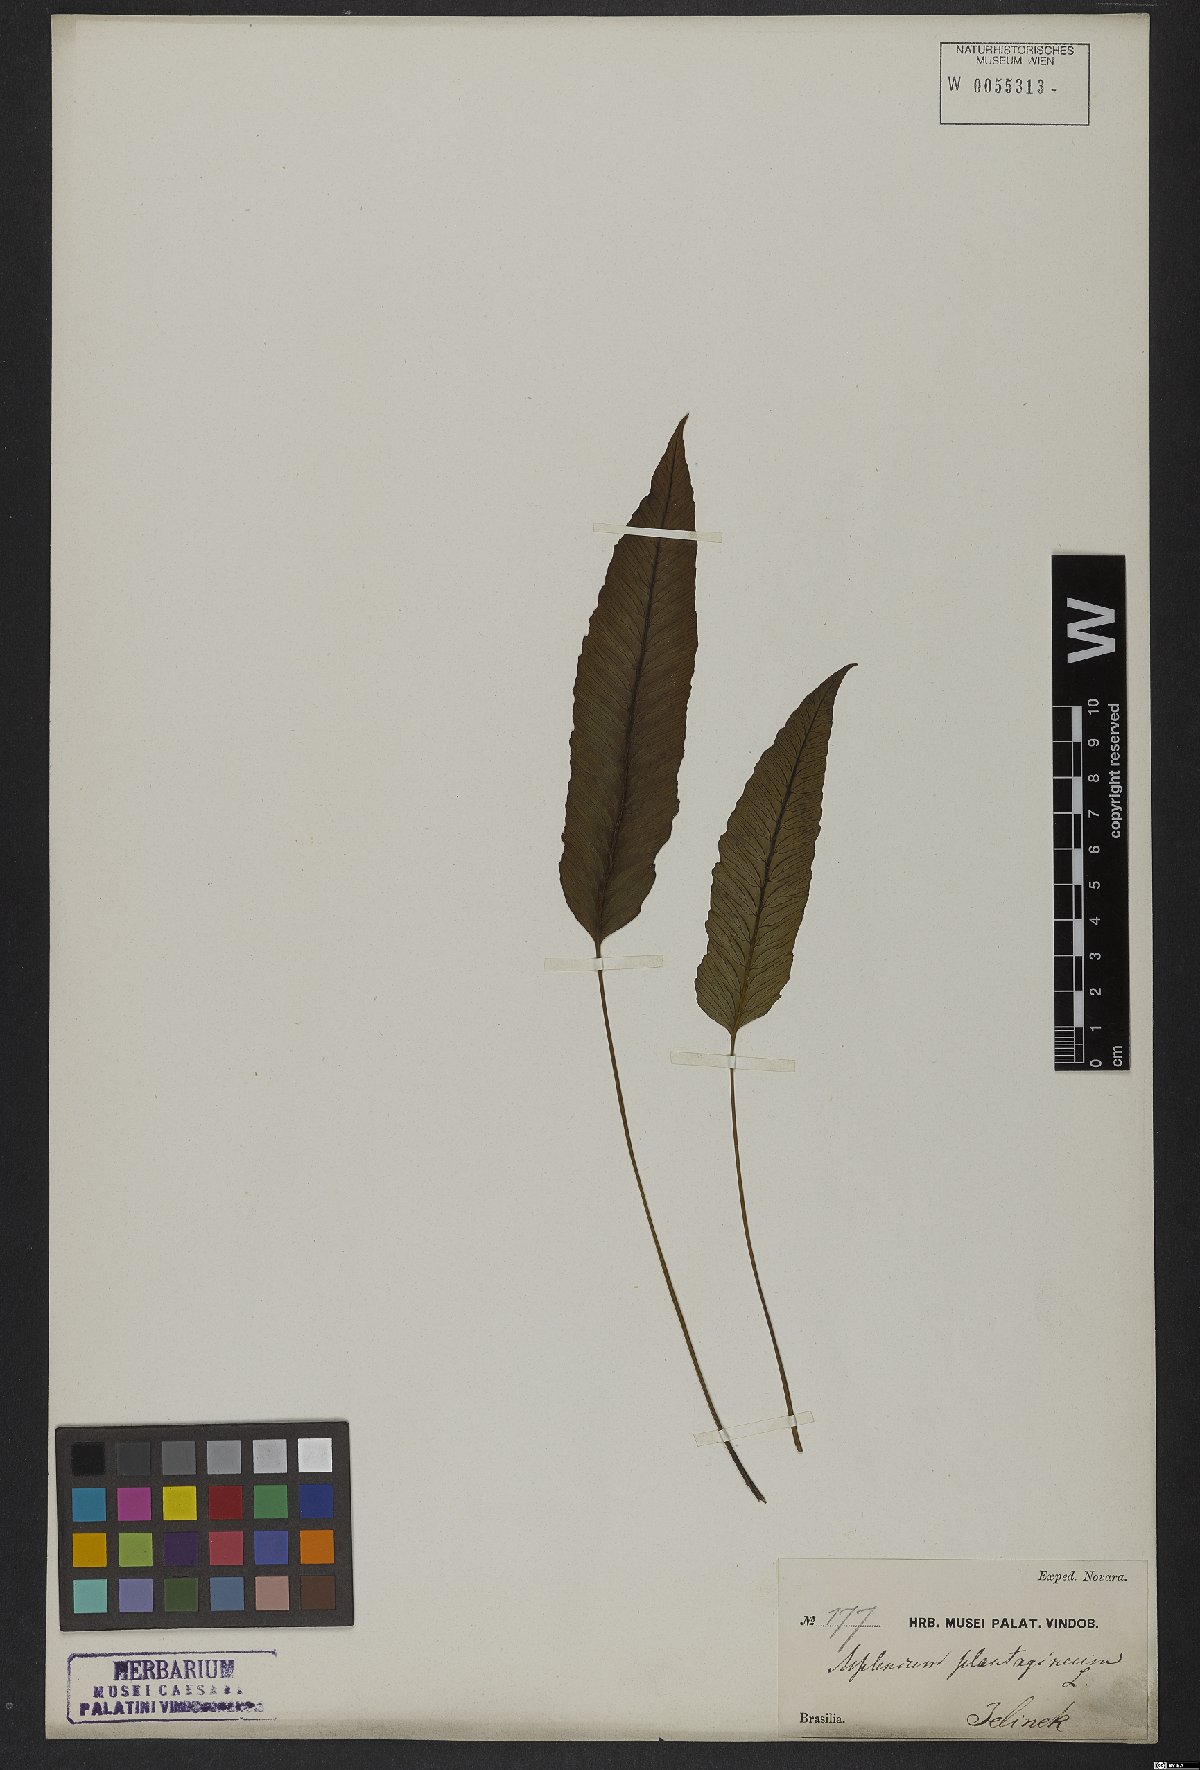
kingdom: Plantae
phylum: Tracheophyta
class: Polypodiopsida
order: Polypodiales
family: Athyriaceae
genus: Diplazium
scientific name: Diplazium plantaginifolium
